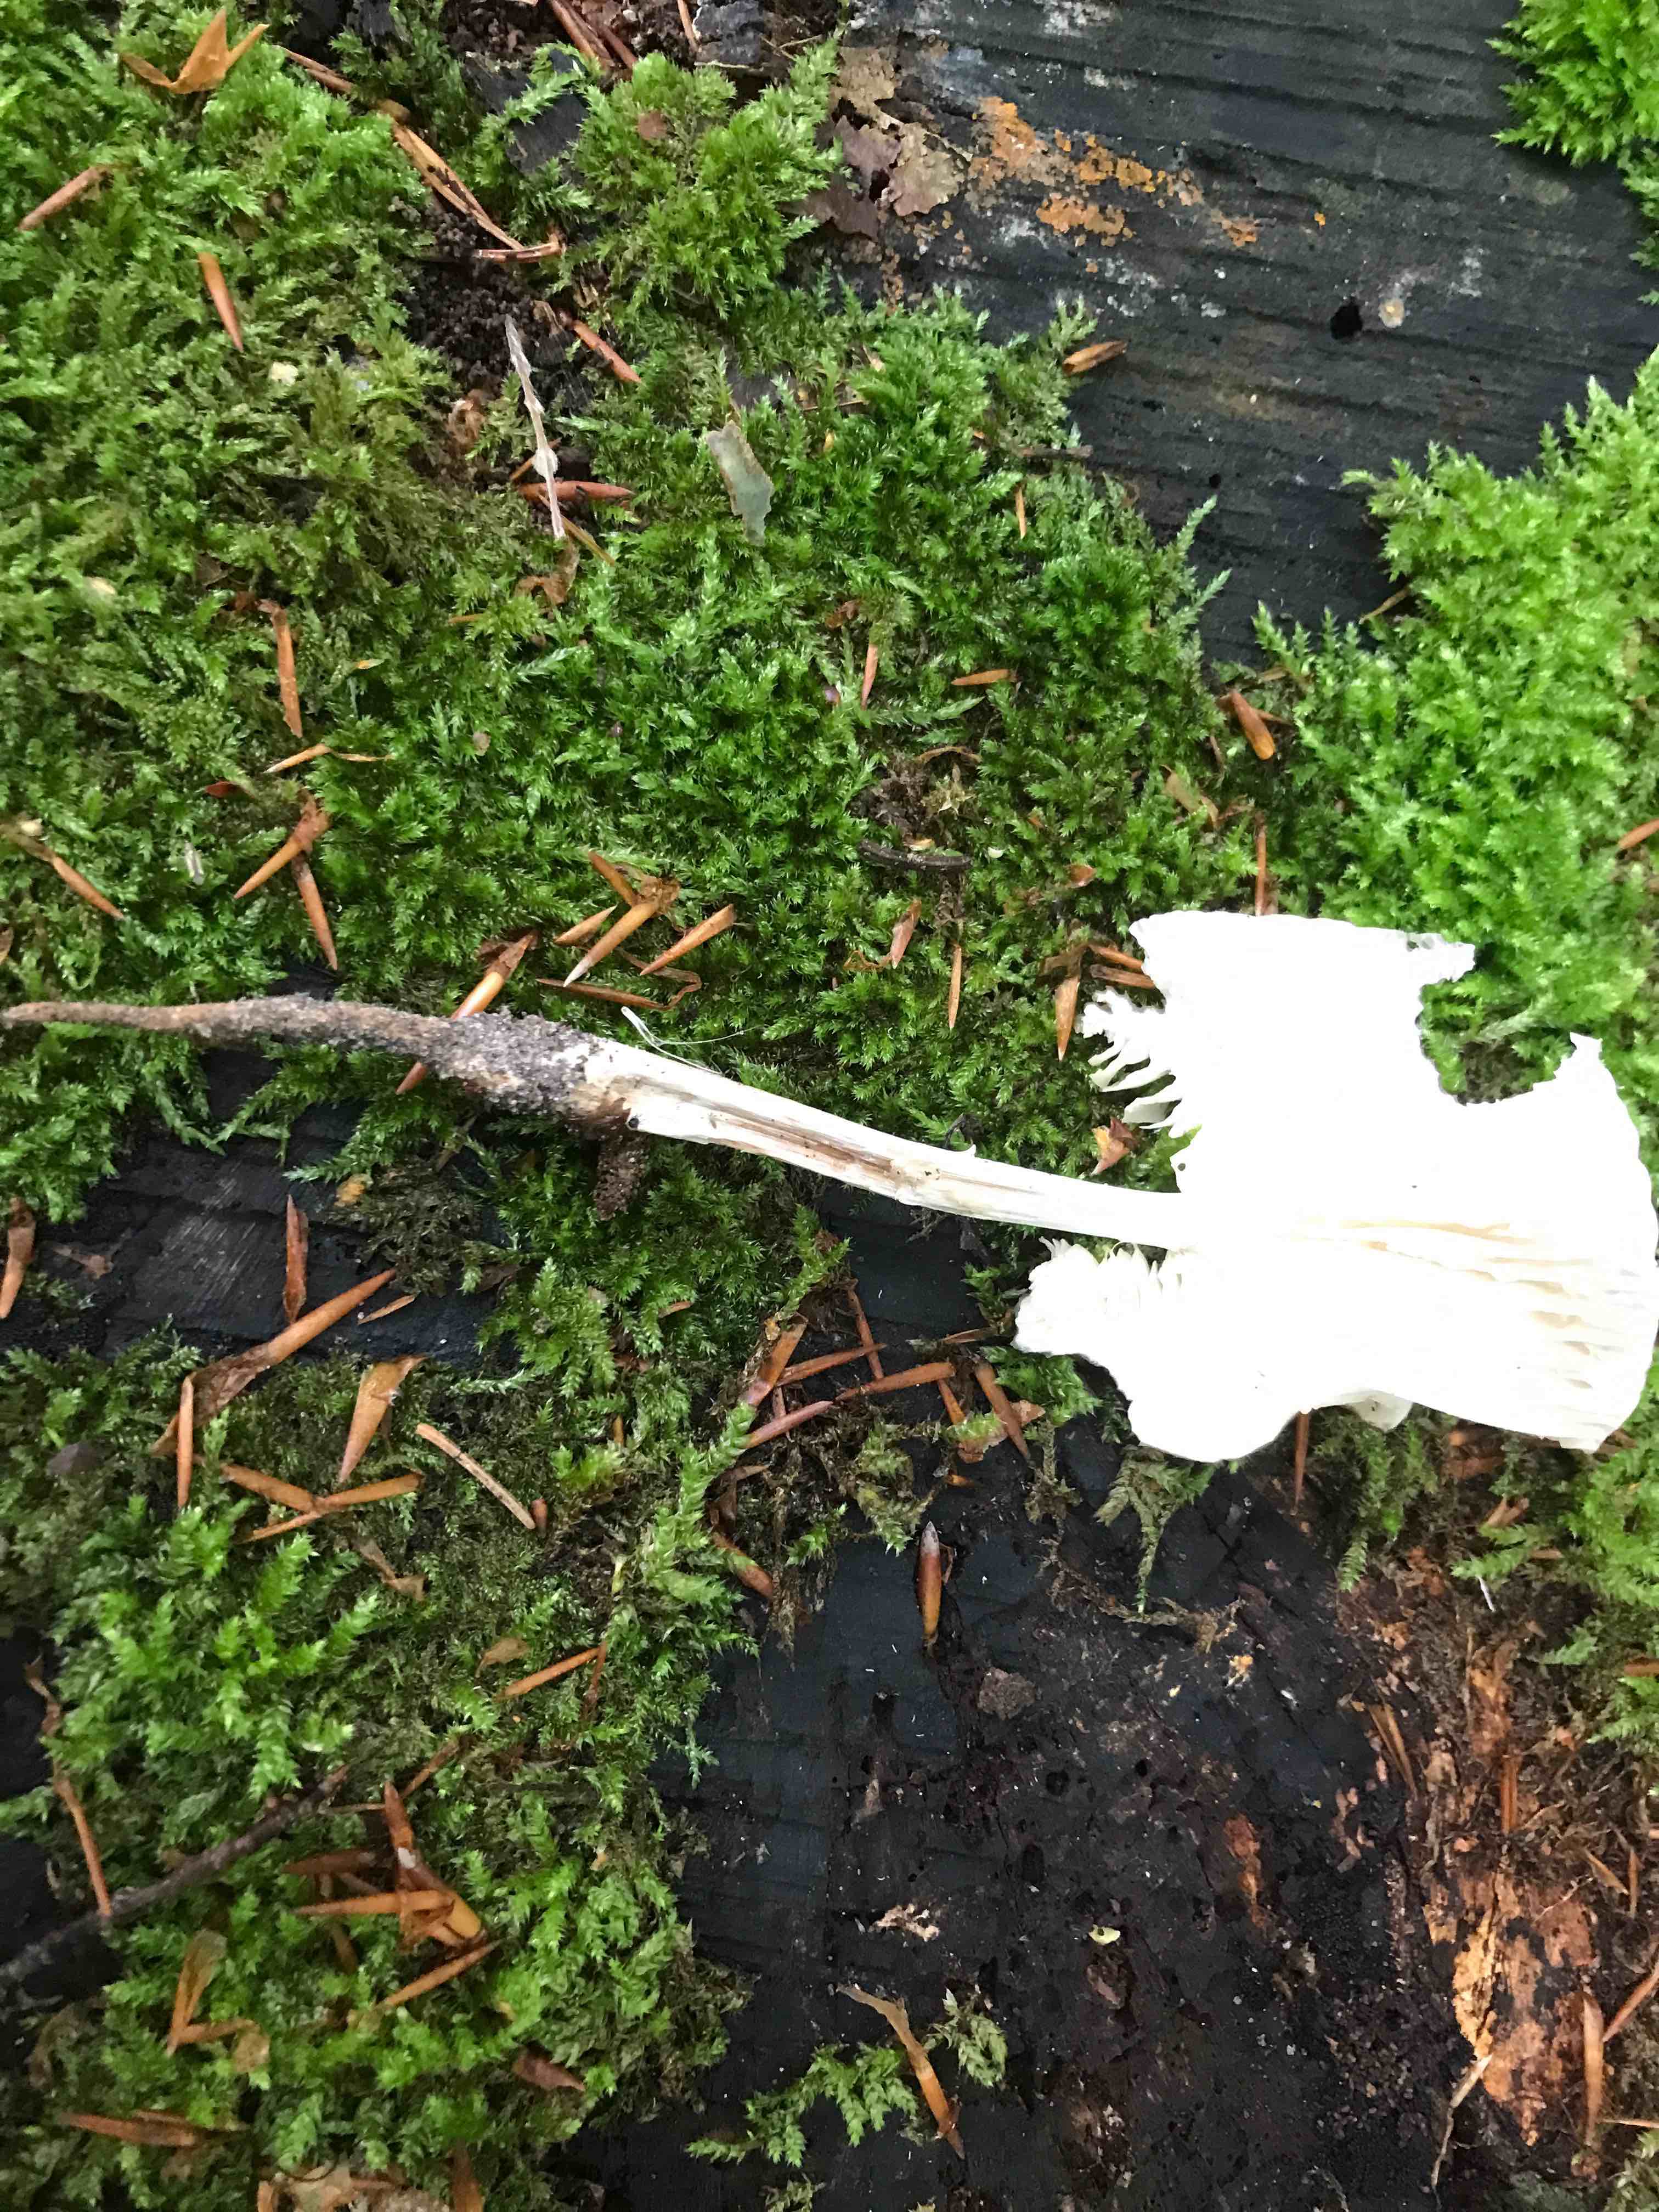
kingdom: Fungi
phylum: Basidiomycota
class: Agaricomycetes
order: Agaricales
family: Physalacriaceae
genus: Hymenopellis
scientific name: Hymenopellis radicata
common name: almindelig pælerodshat
